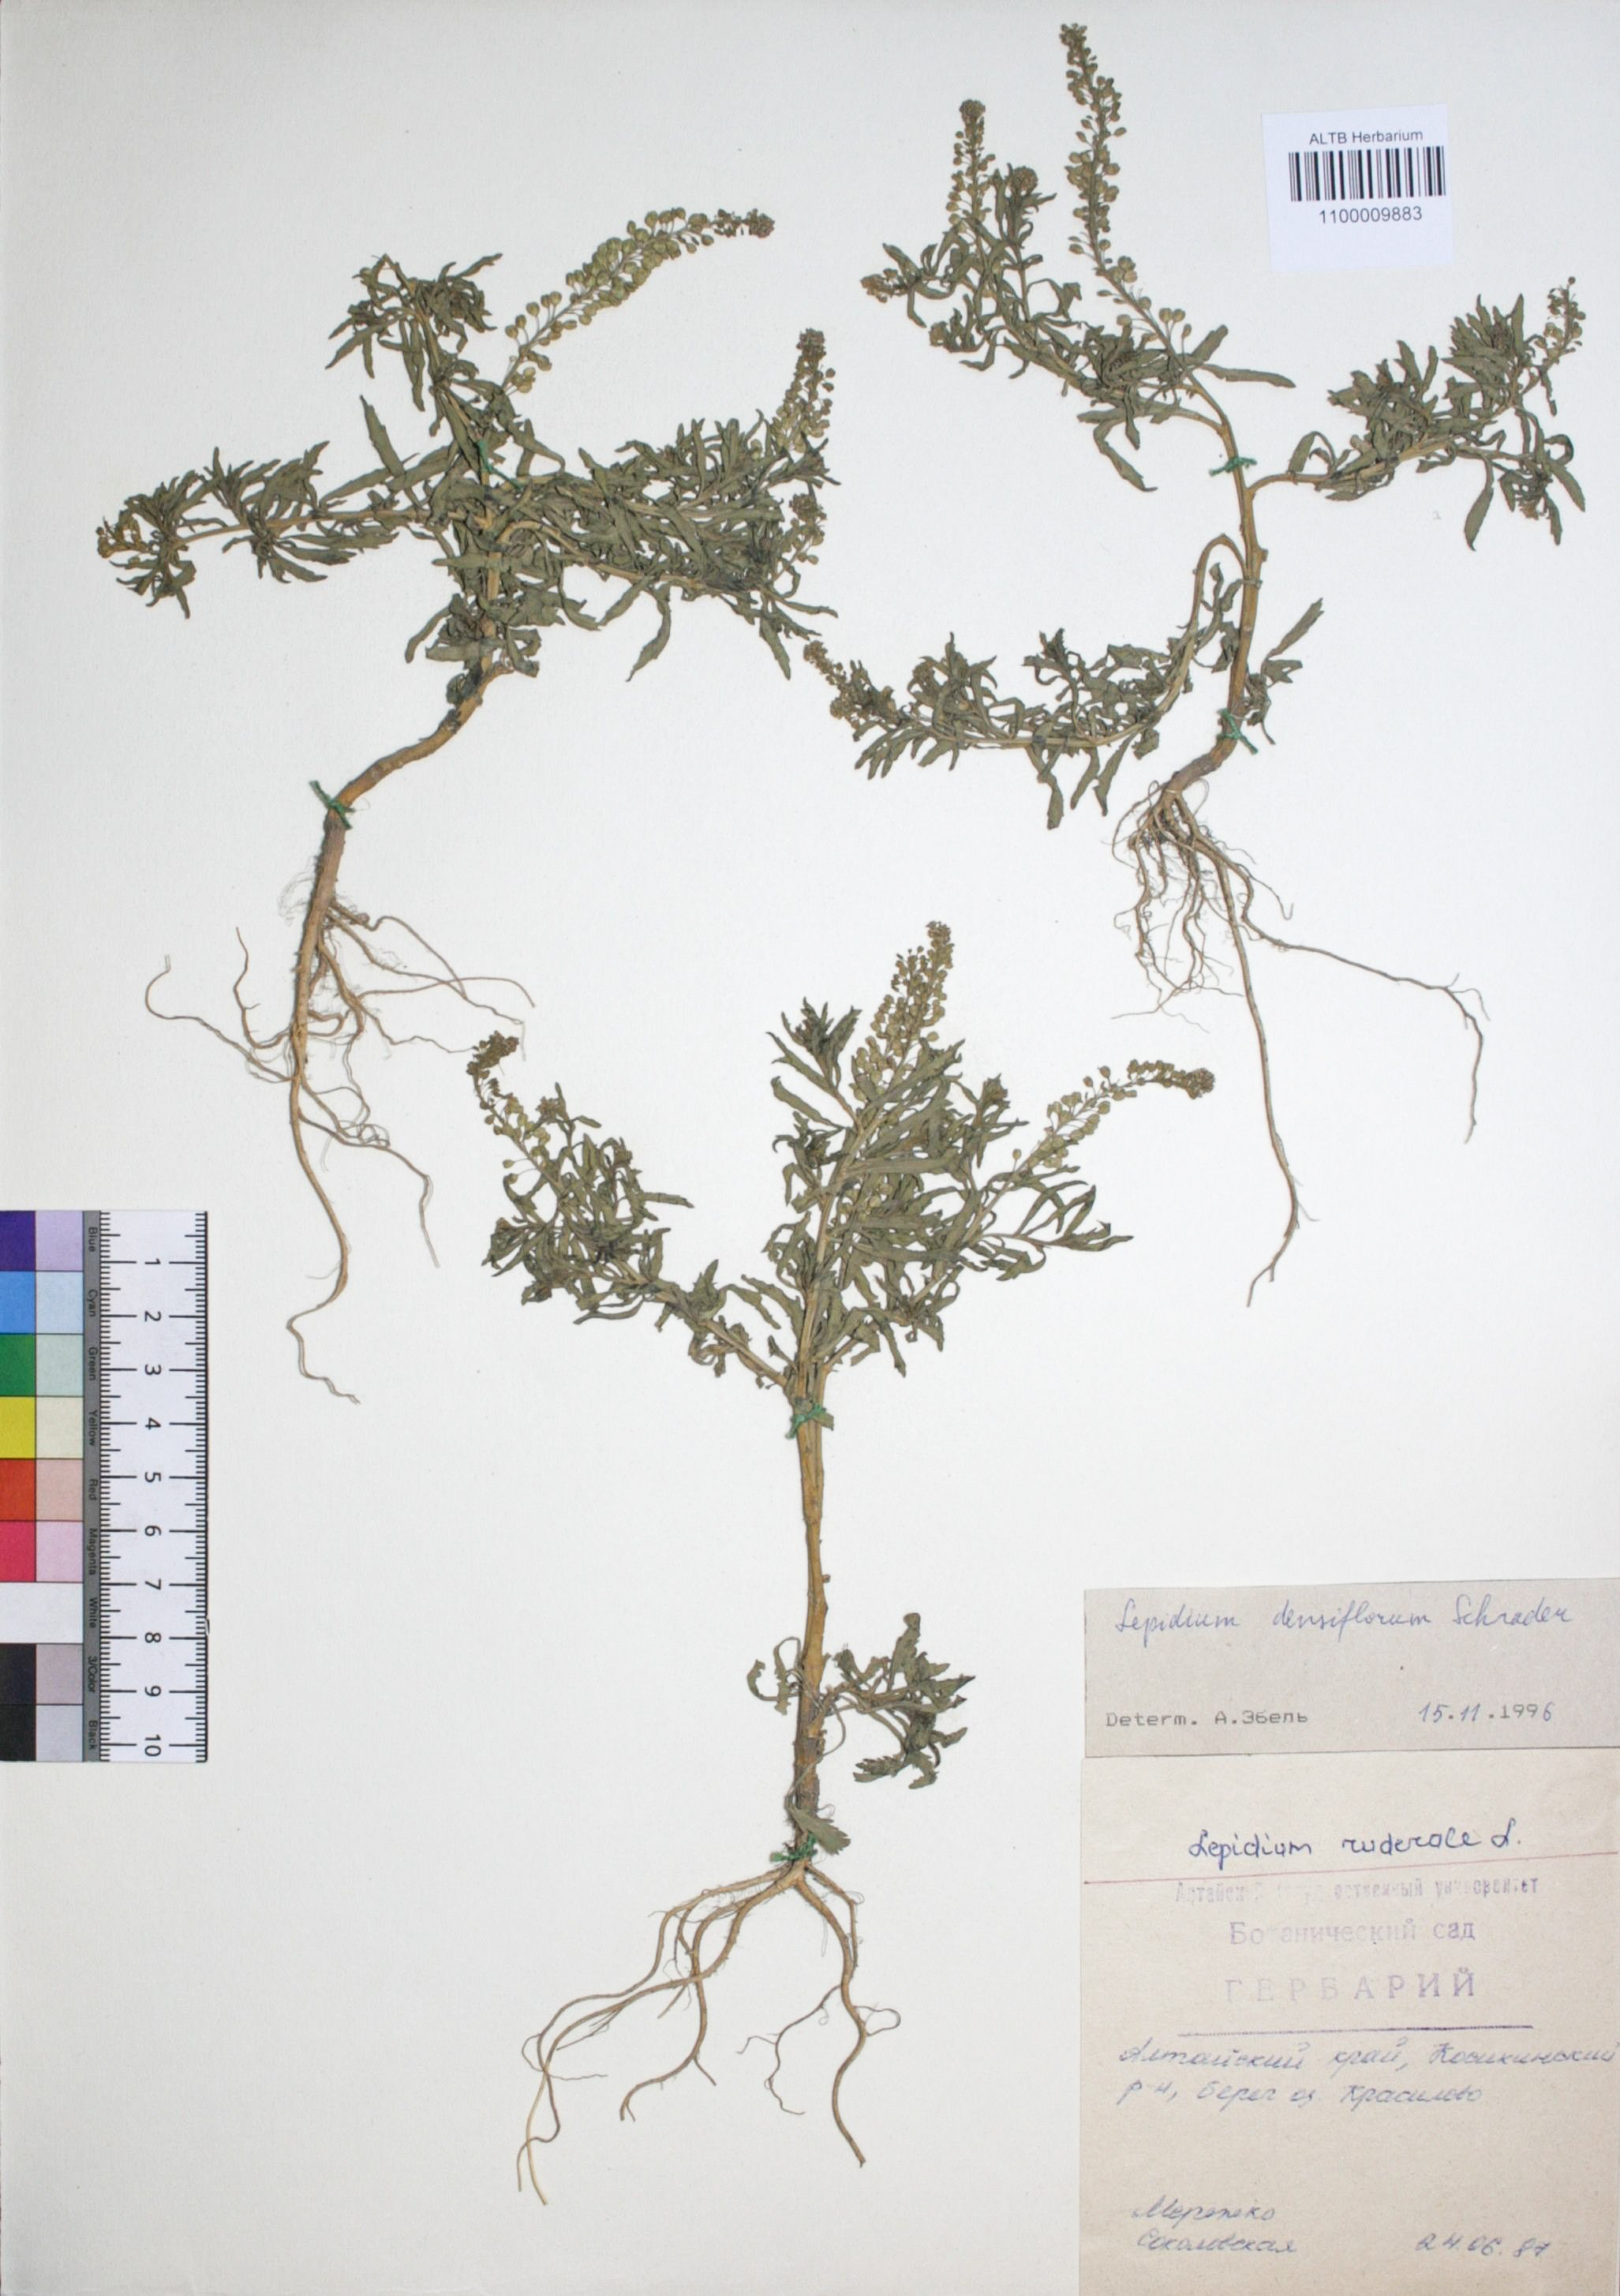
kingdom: Plantae
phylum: Tracheophyta
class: Magnoliopsida
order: Brassicales
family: Brassicaceae
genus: Lepidium
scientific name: Lepidium densiflorum
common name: Miner's pepperwort
